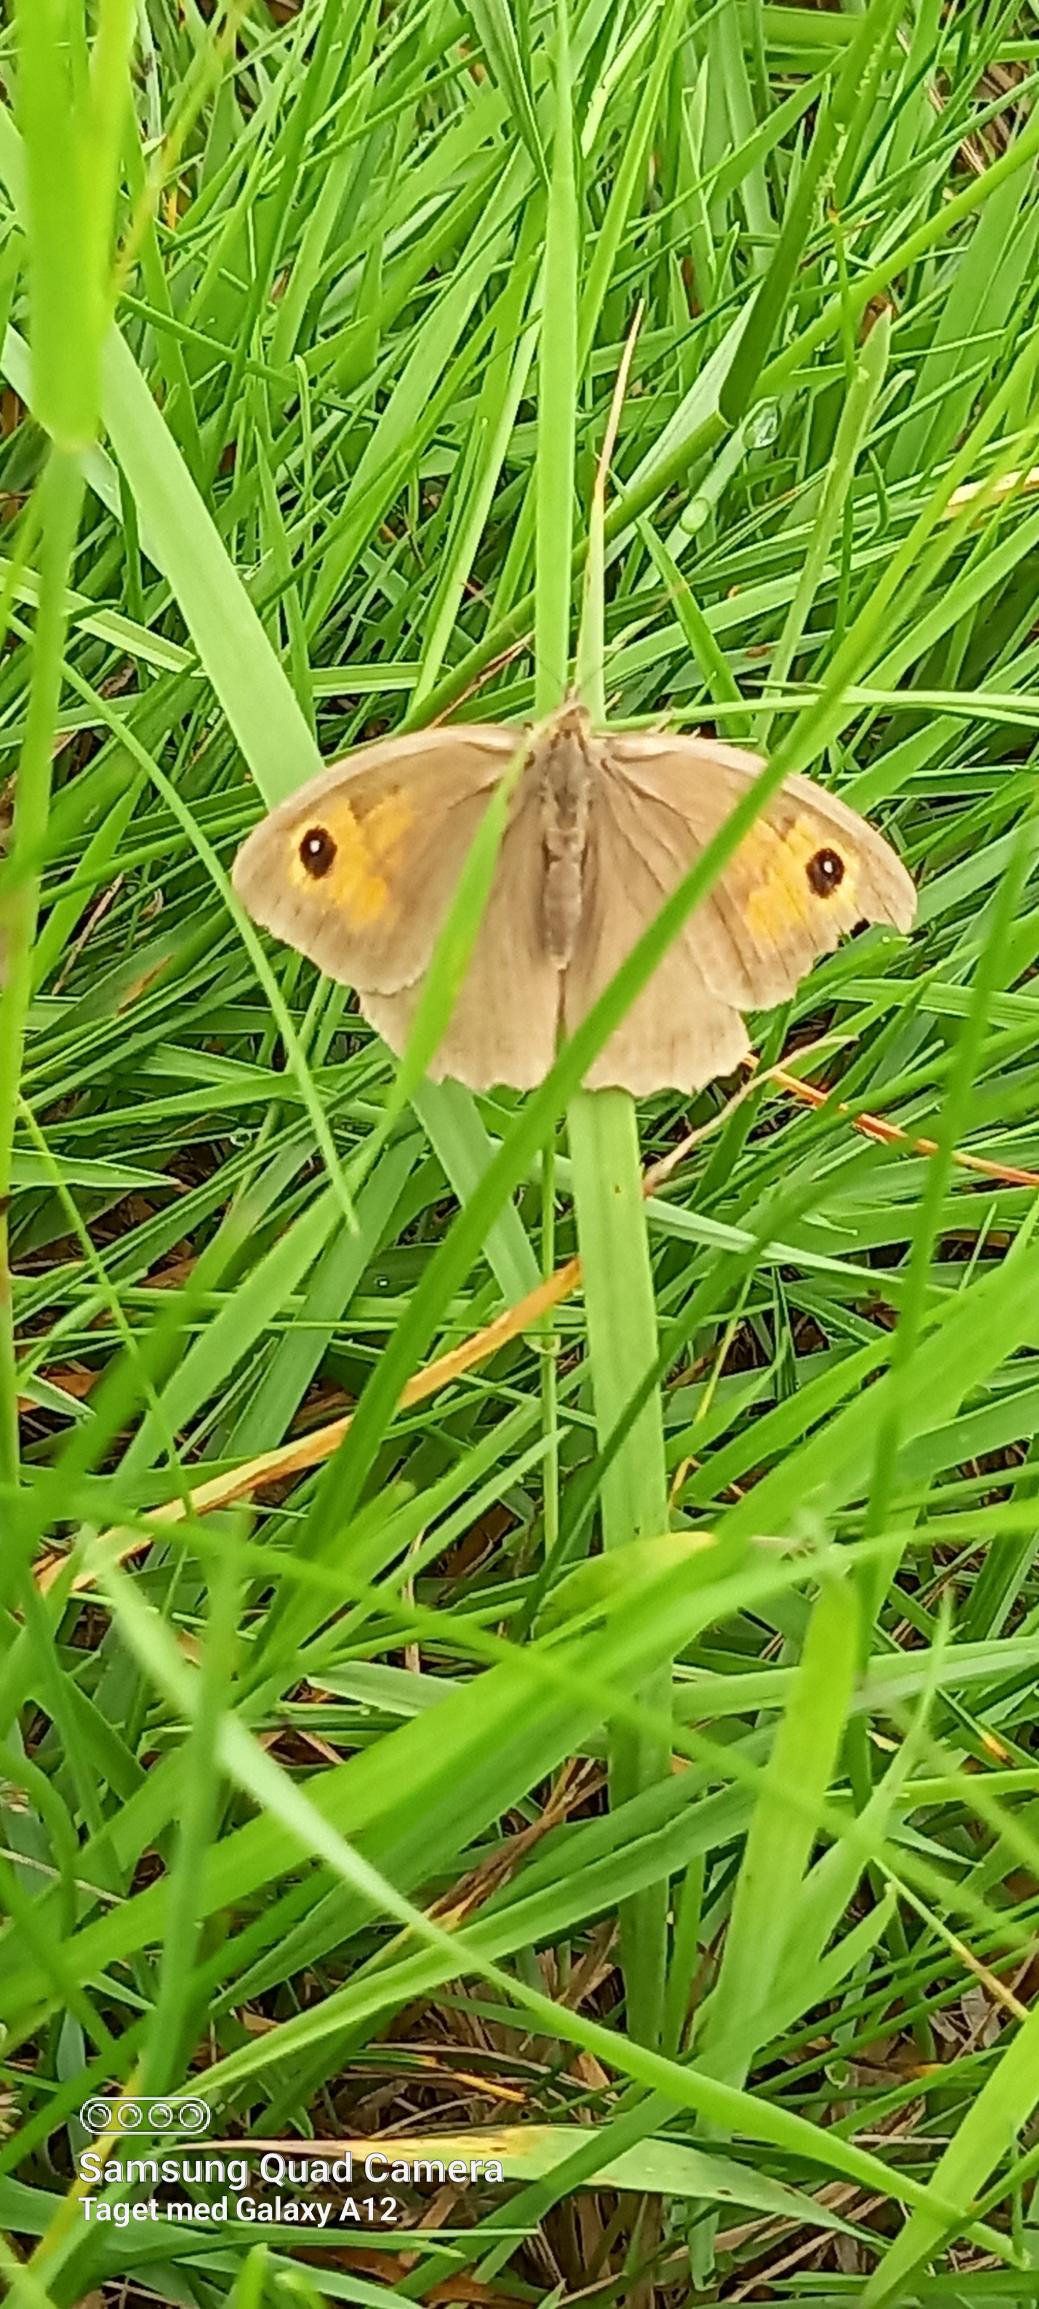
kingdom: Animalia
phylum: Arthropoda
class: Insecta
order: Lepidoptera
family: Nymphalidae
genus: Maniola
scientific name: Maniola jurtina
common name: Græsrandøje
